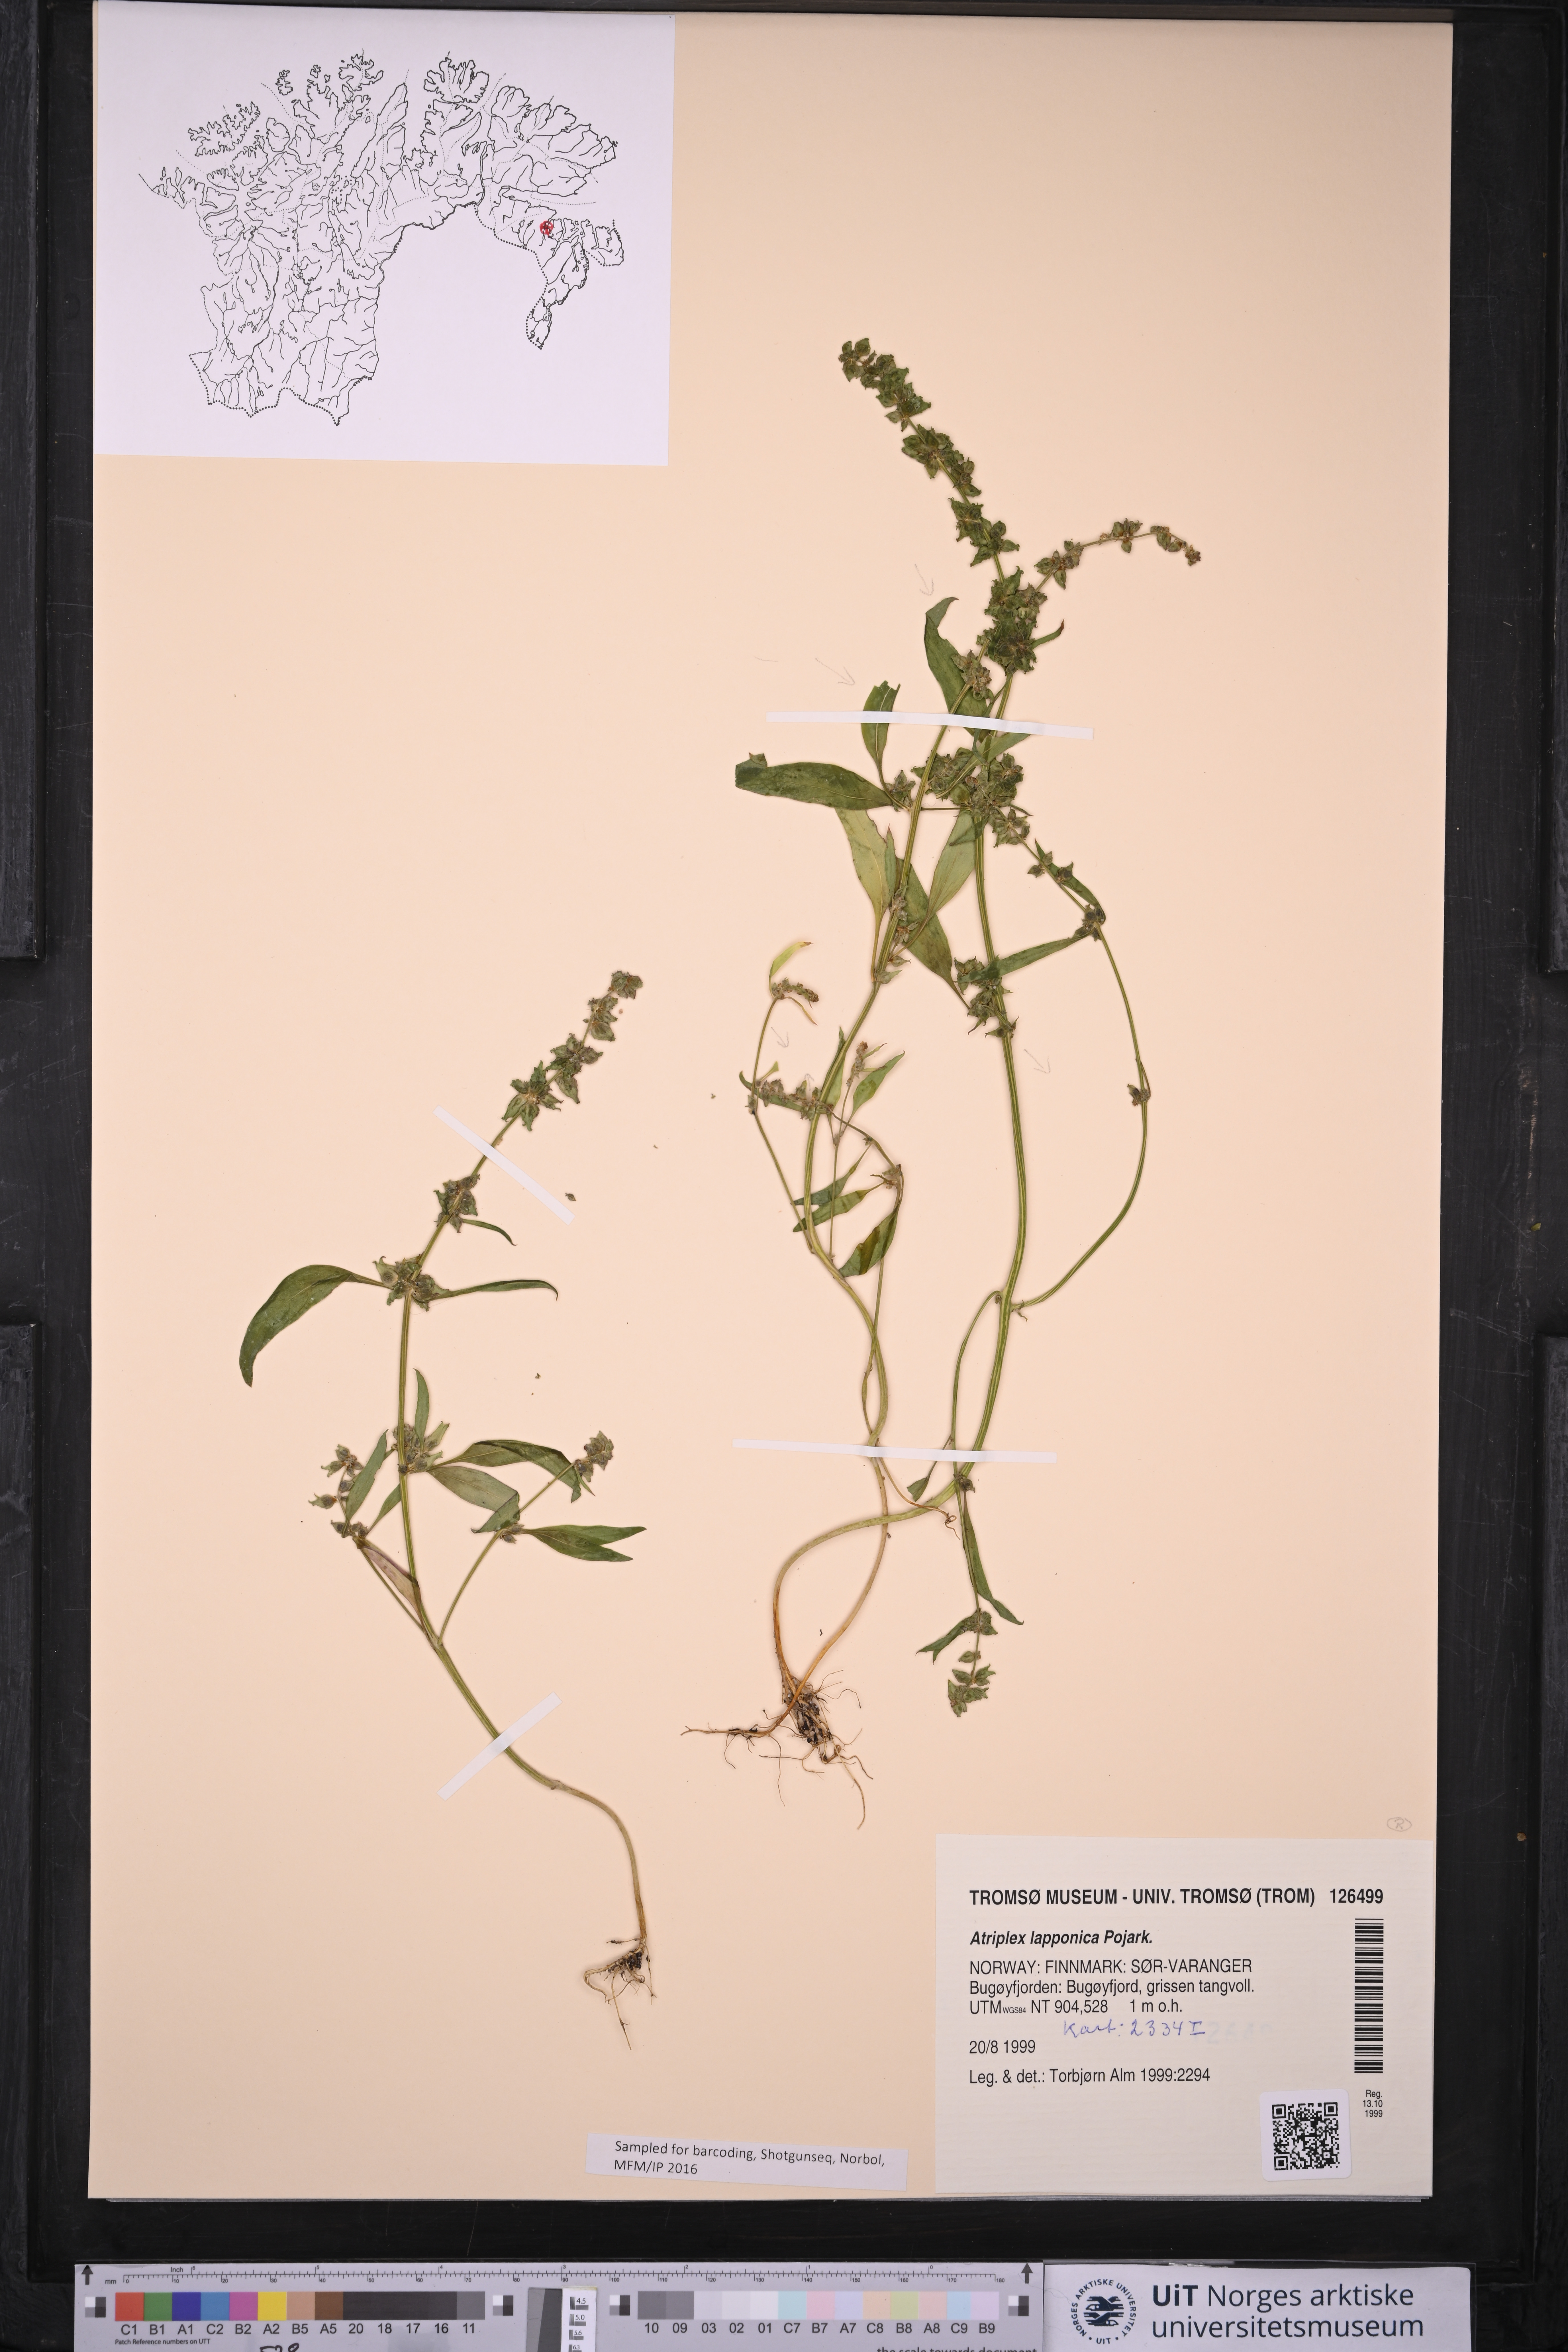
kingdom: Plantae
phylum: Tracheophyta
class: Magnoliopsida
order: Caryophyllales
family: Amaranthaceae
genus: Atriplex
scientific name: Atriplex nudicaulis
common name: Baltic orache
